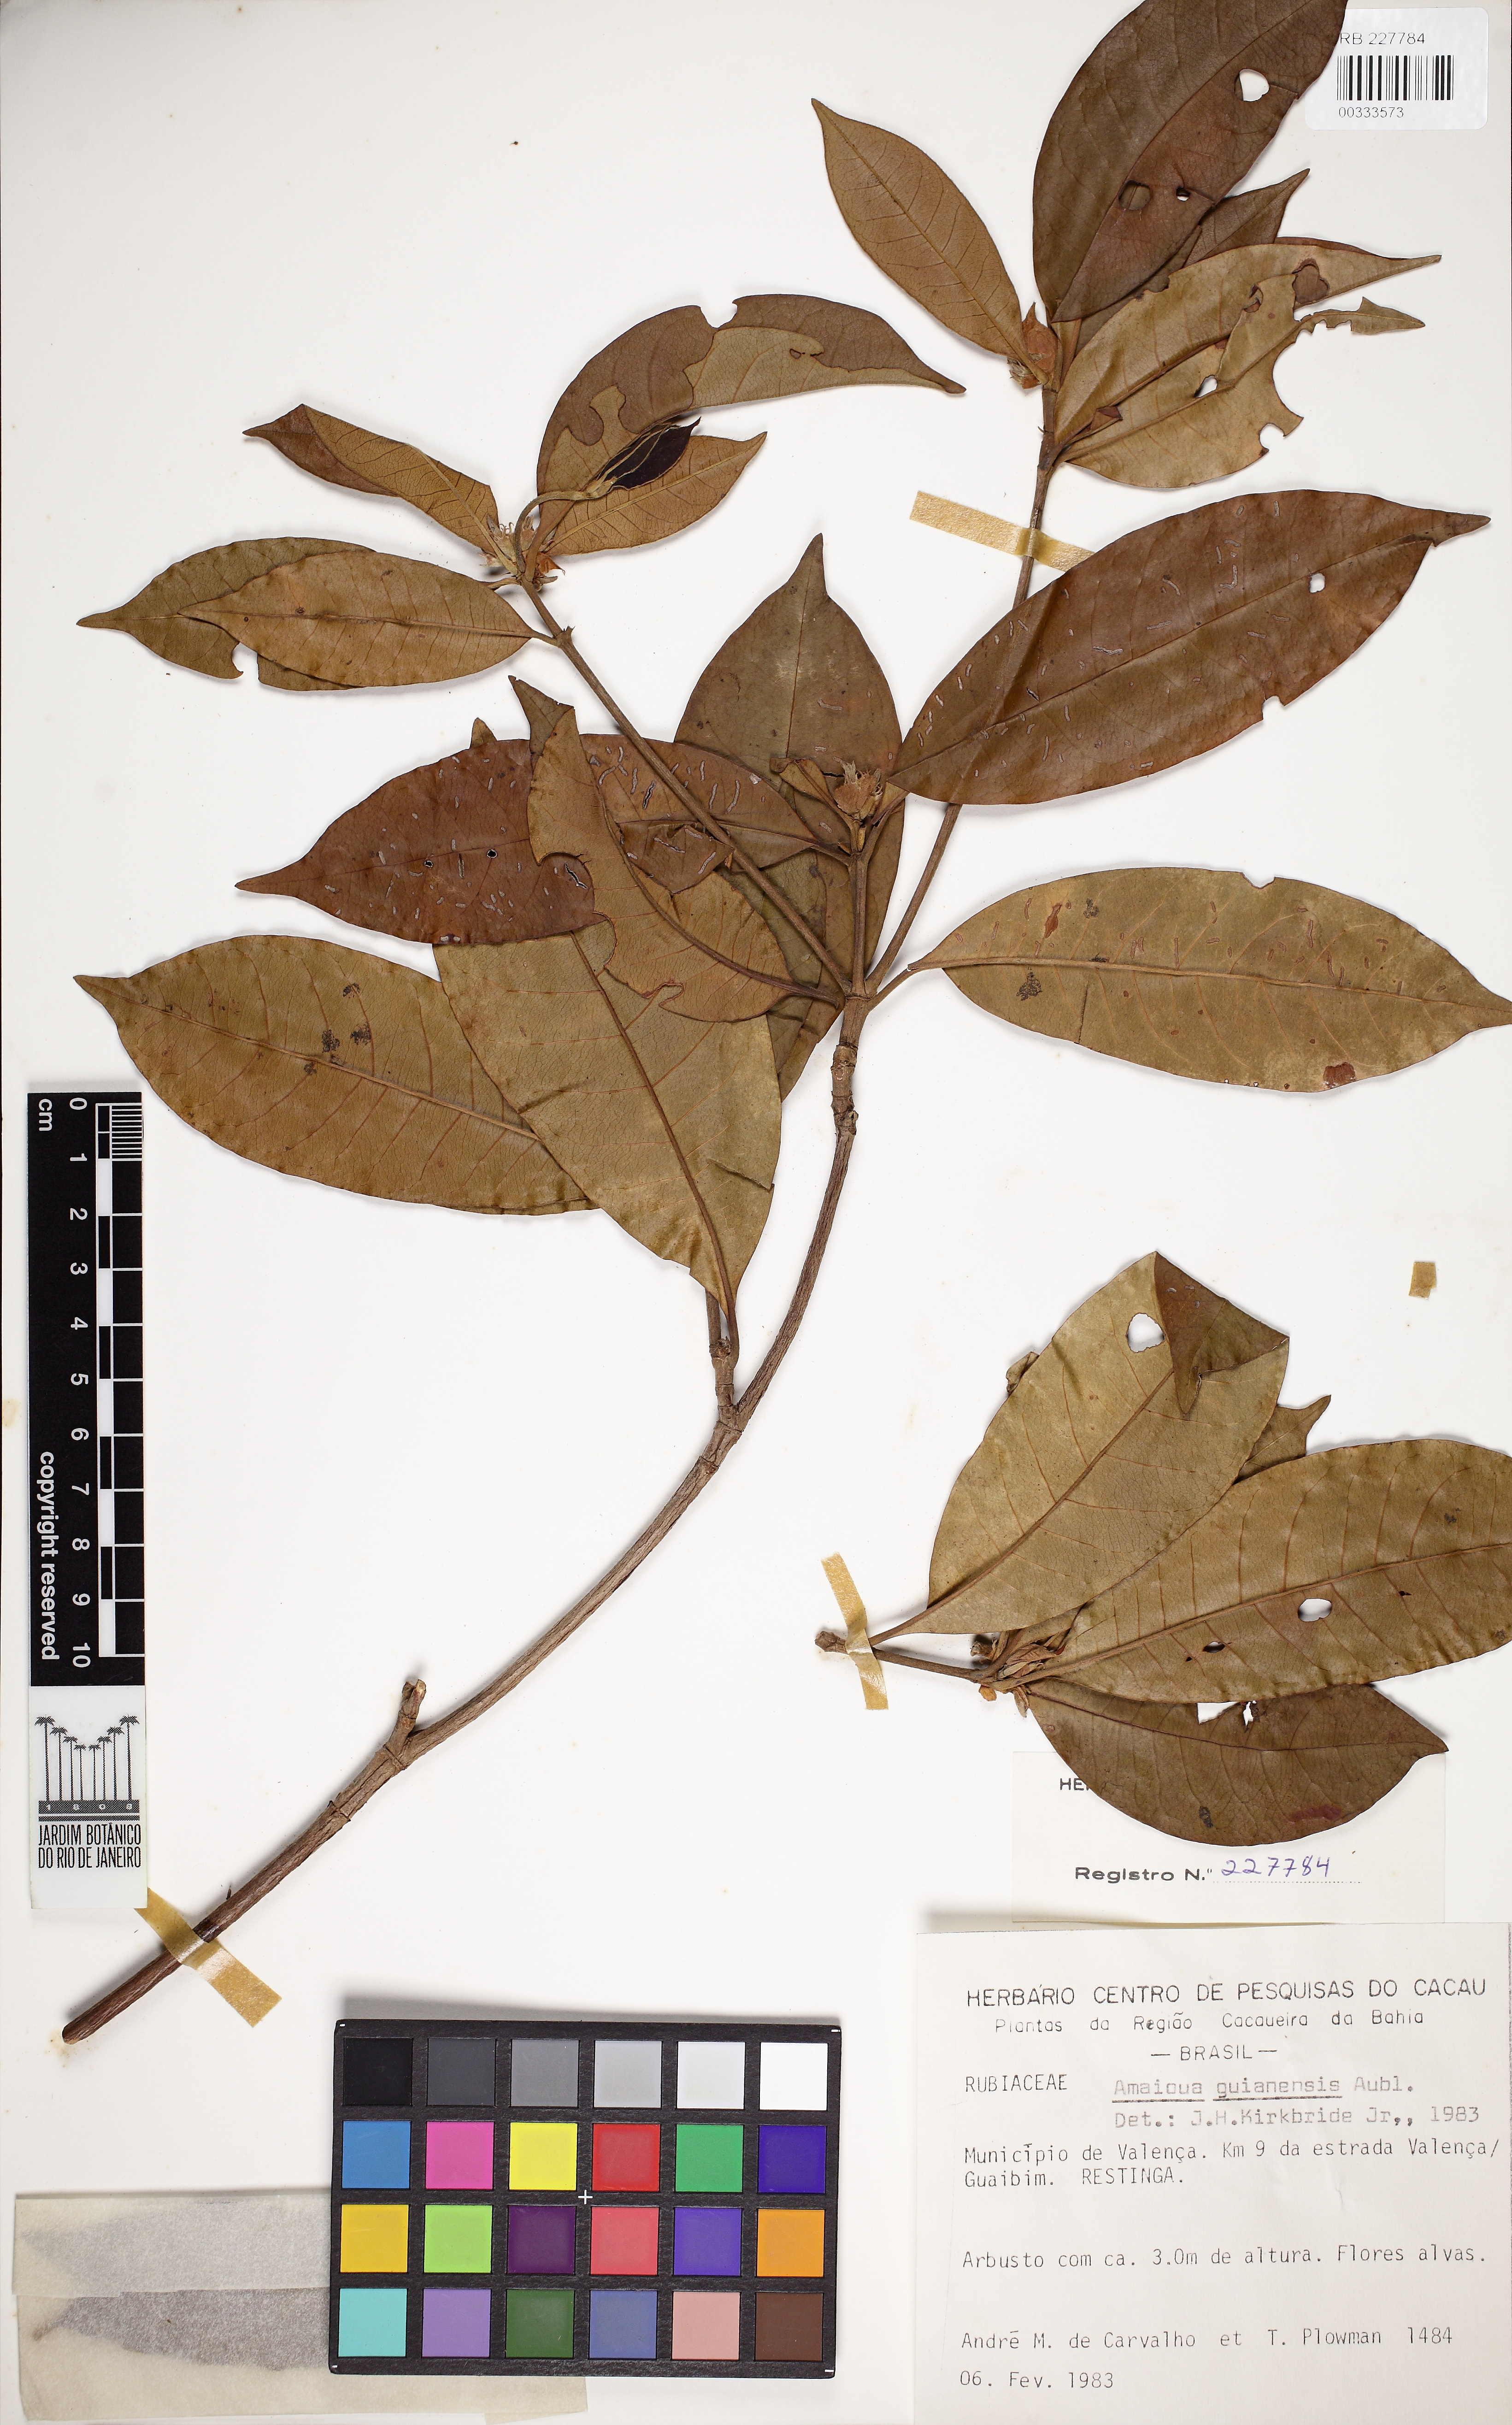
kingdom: Plantae
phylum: Tracheophyta
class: Magnoliopsida
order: Gentianales
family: Rubiaceae
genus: Amaioua
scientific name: Amaioua guianensis
